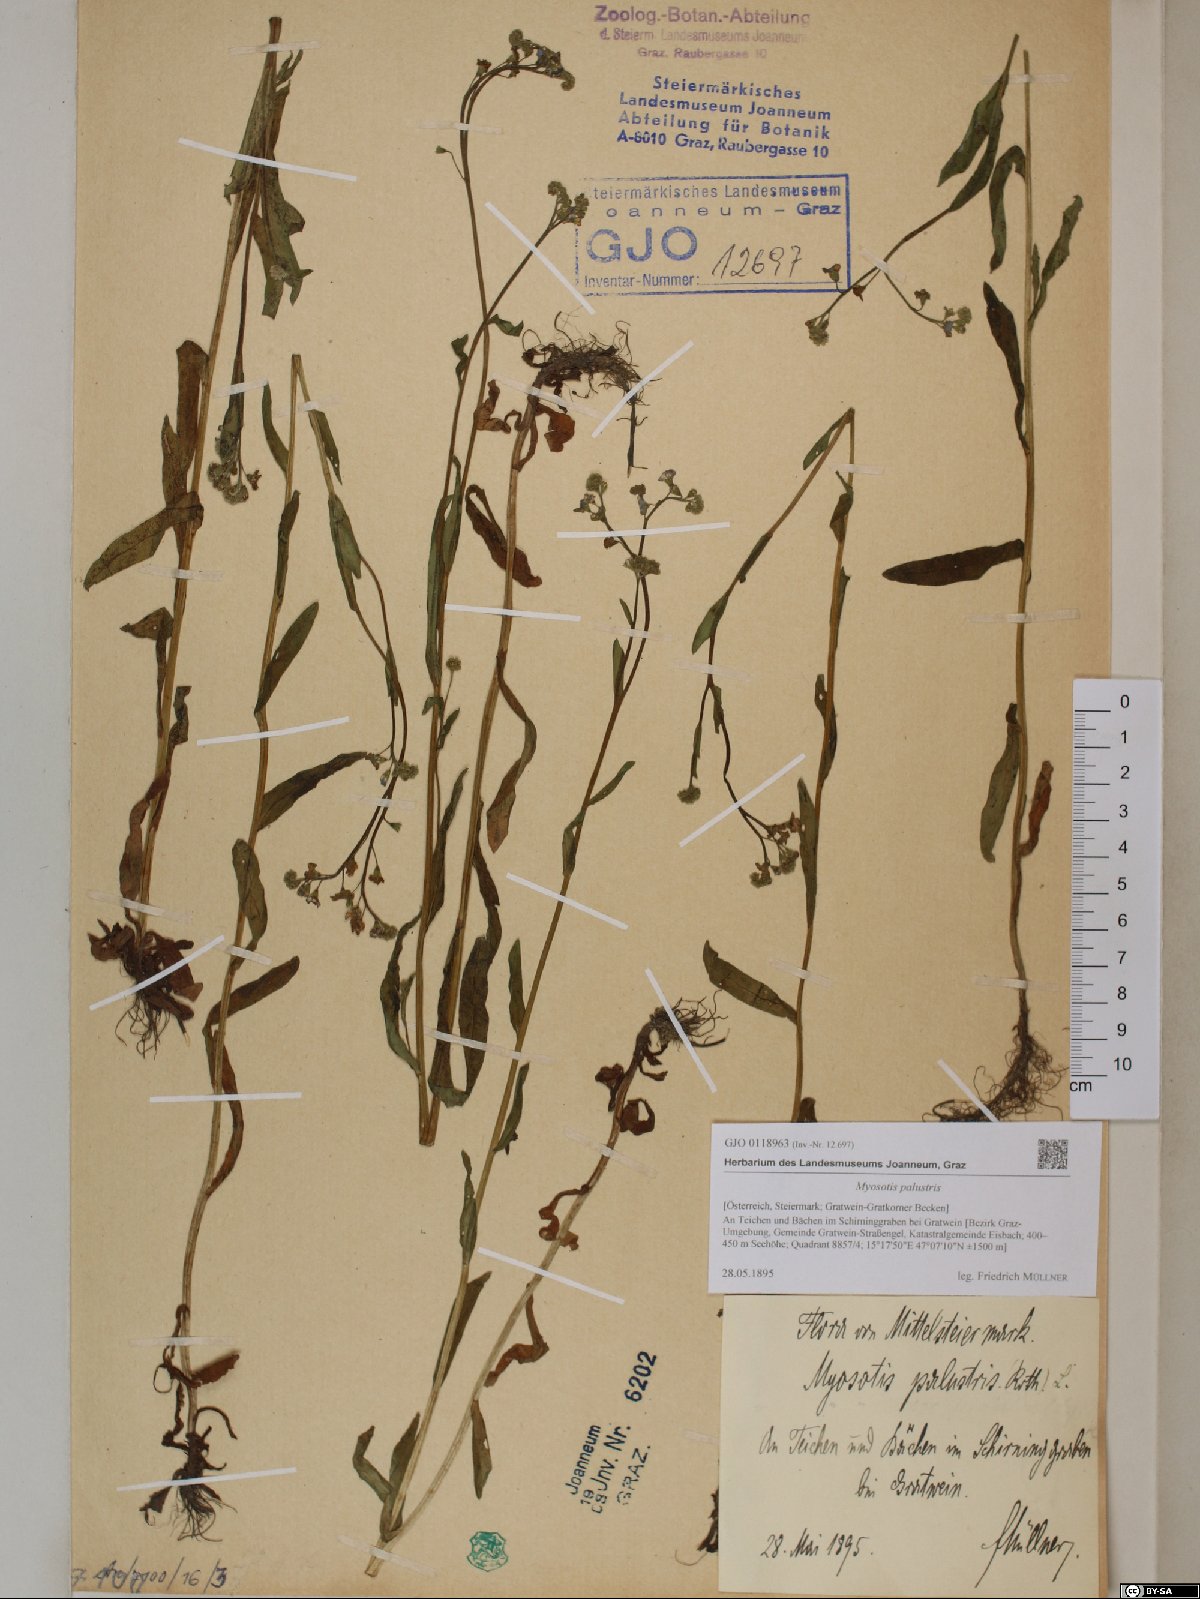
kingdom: Plantae
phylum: Tracheophyta
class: Magnoliopsida
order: Boraginales
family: Boraginaceae
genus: Myosotis
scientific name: Myosotis scorpioides
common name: Water forget-me-not
